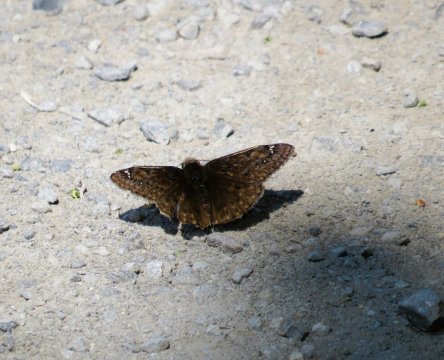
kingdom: Animalia
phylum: Arthropoda
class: Insecta
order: Lepidoptera
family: Hesperiidae
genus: Gesta
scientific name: Gesta
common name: Juvenal's Duskywing
